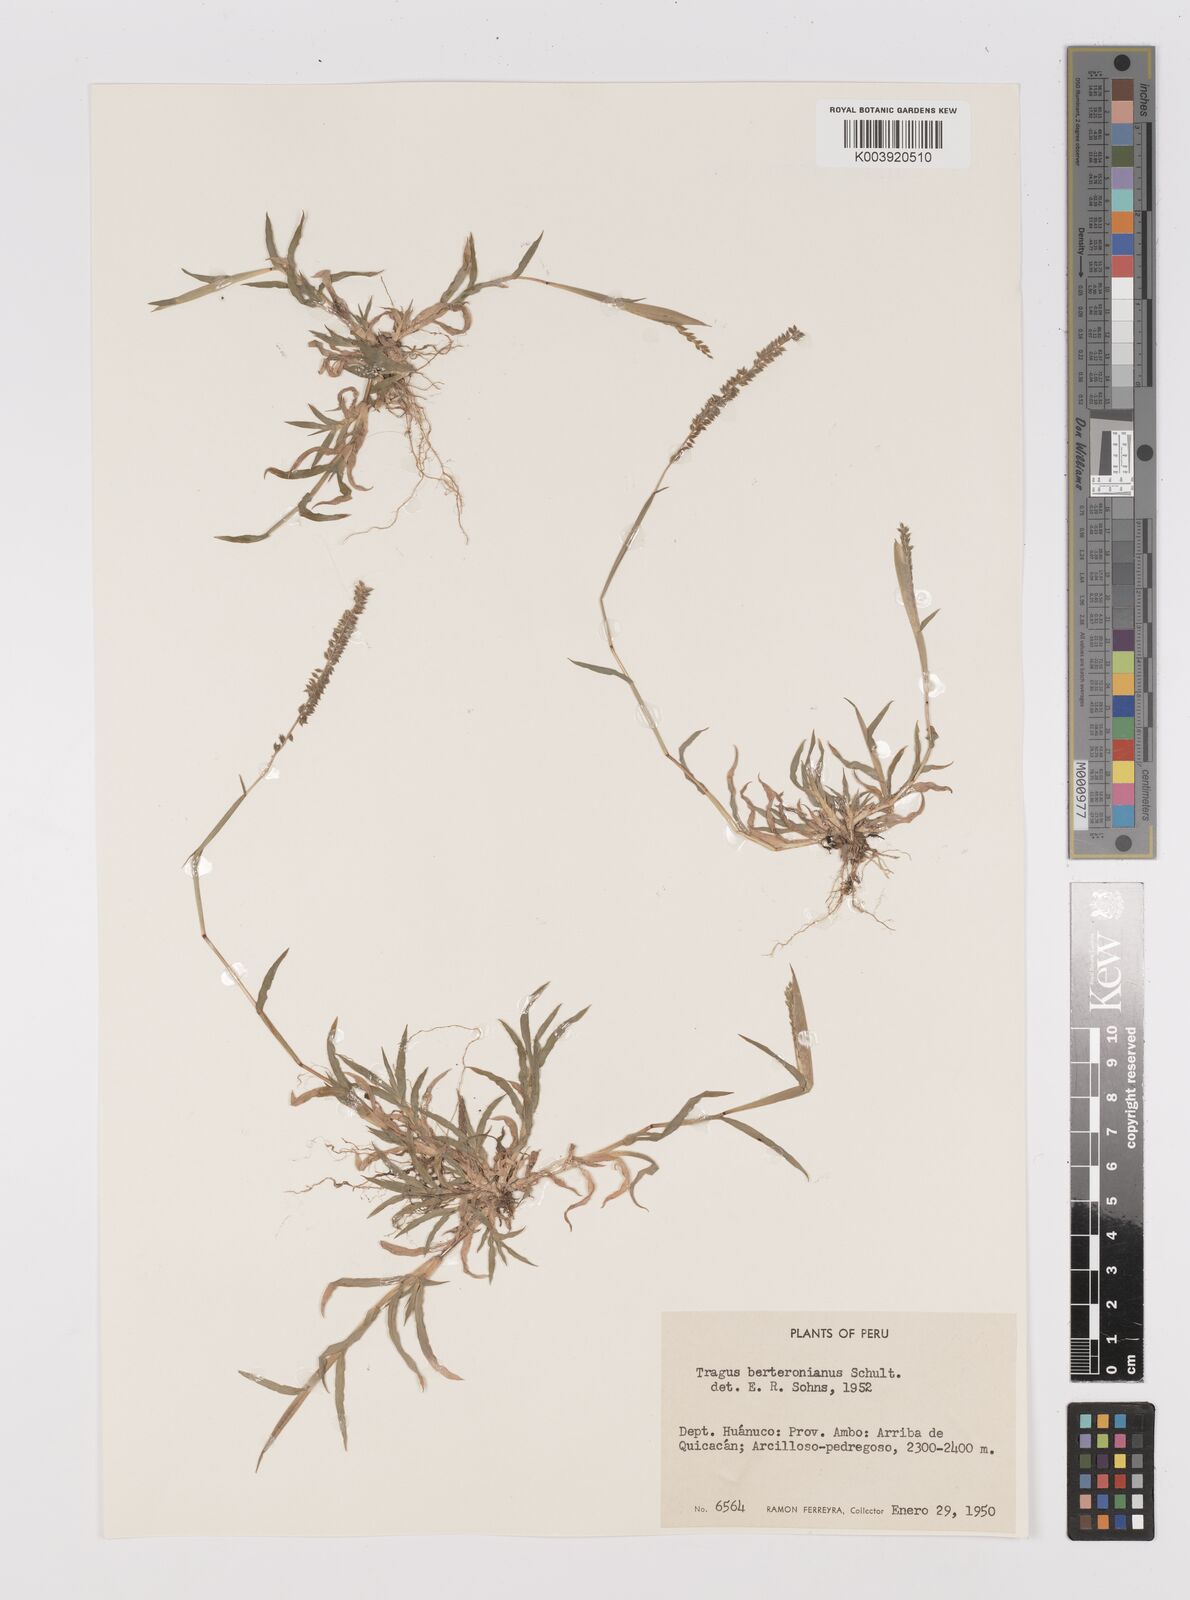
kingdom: Plantae
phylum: Tracheophyta
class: Liliopsida
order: Poales
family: Poaceae
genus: Tragus
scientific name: Tragus berteronianus
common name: African bur-grass
